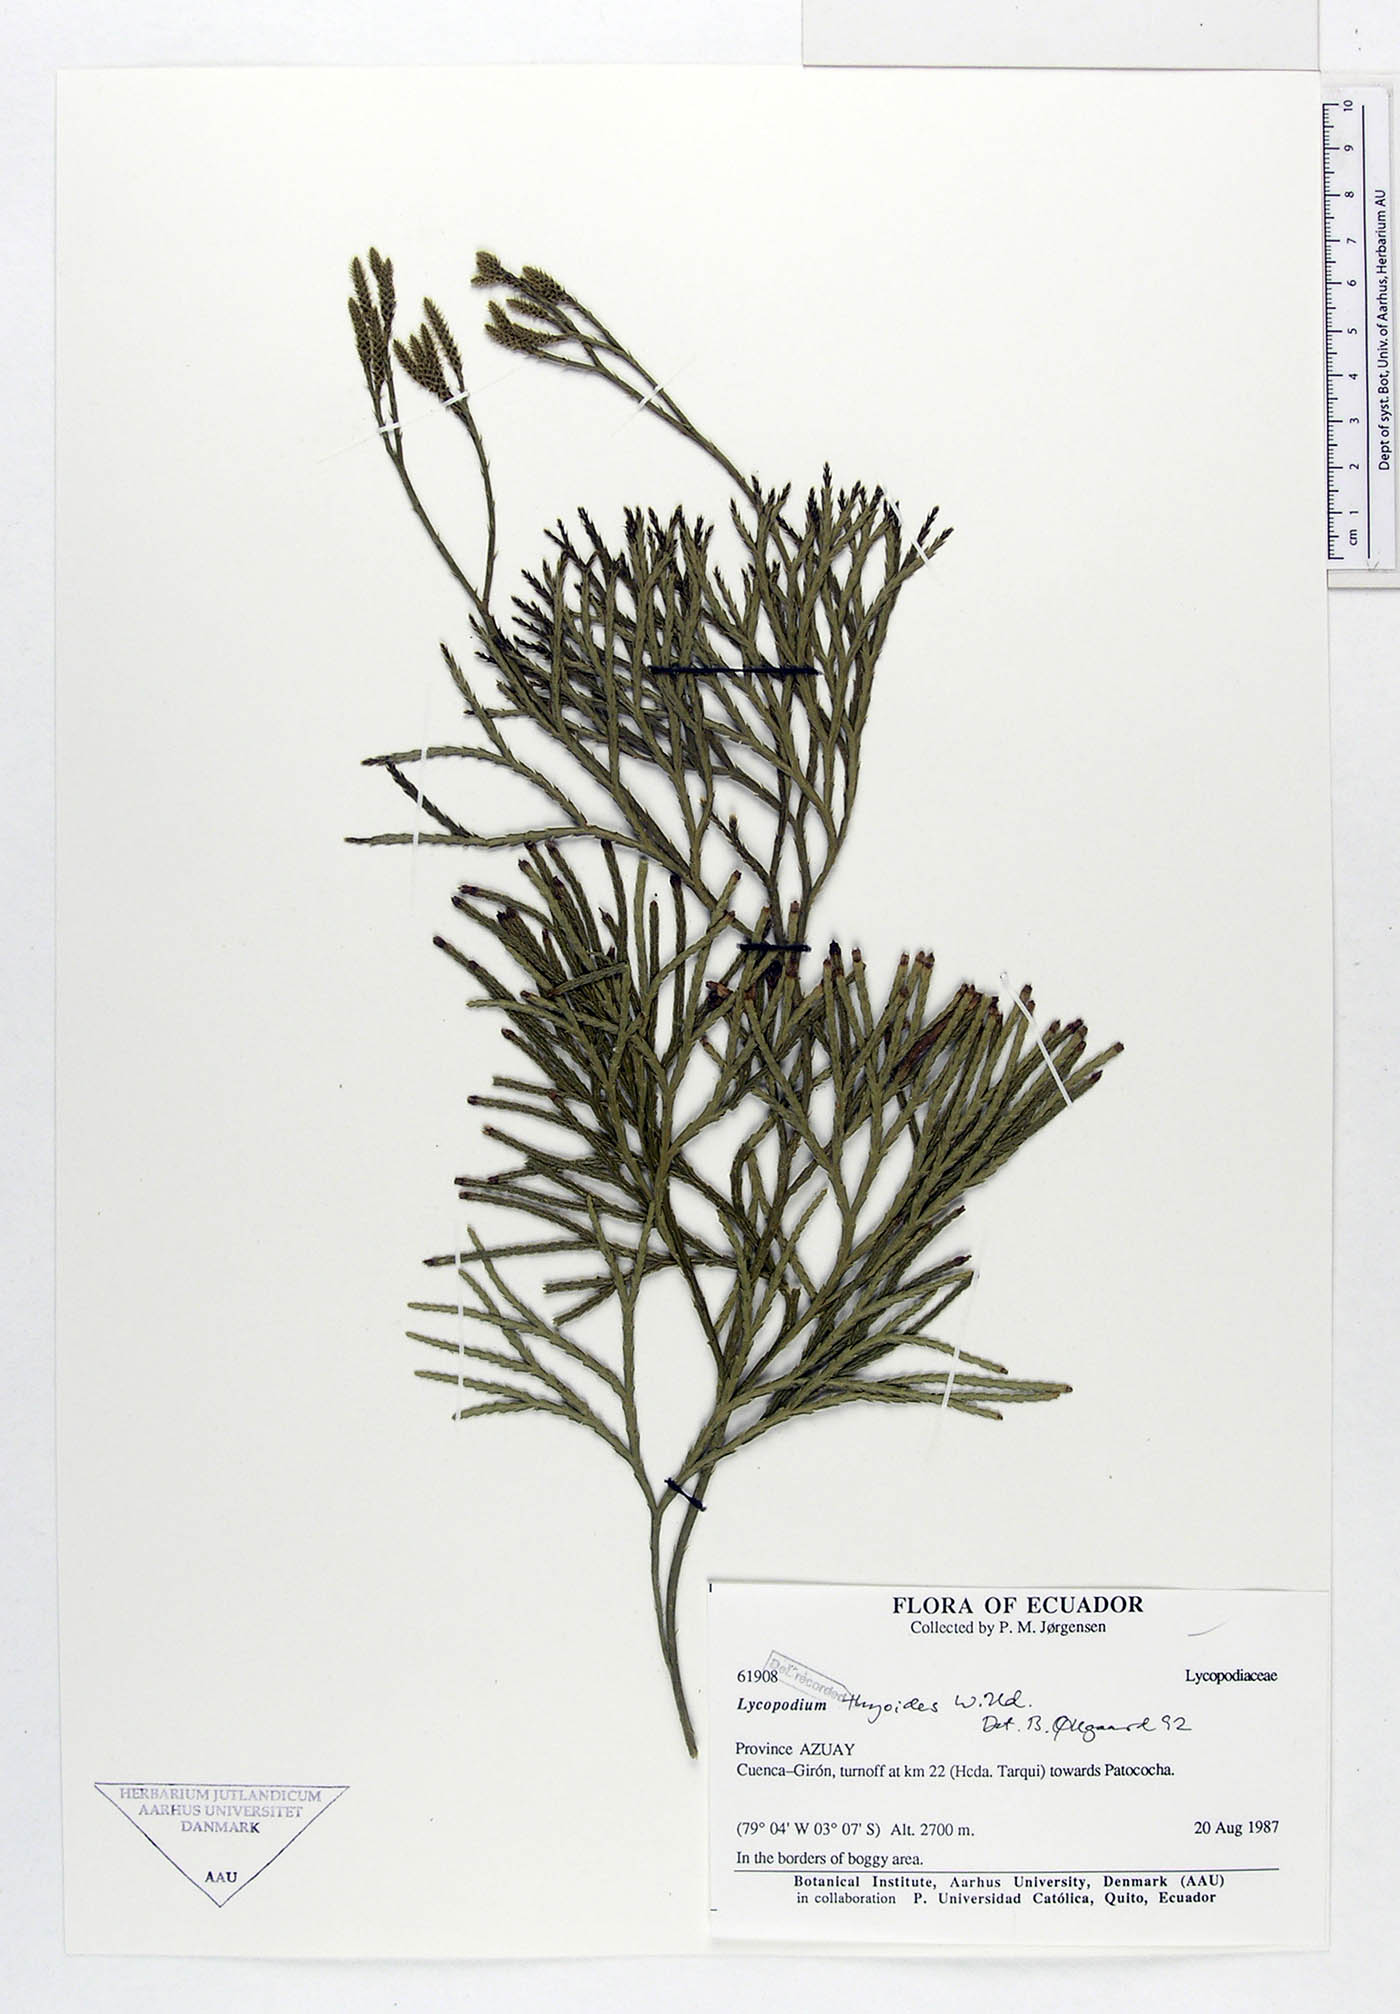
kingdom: Plantae
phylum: Tracheophyta
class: Lycopodiopsida
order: Lycopodiales
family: Lycopodiaceae
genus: Diphasiastrum
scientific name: Diphasiastrum thyoides
